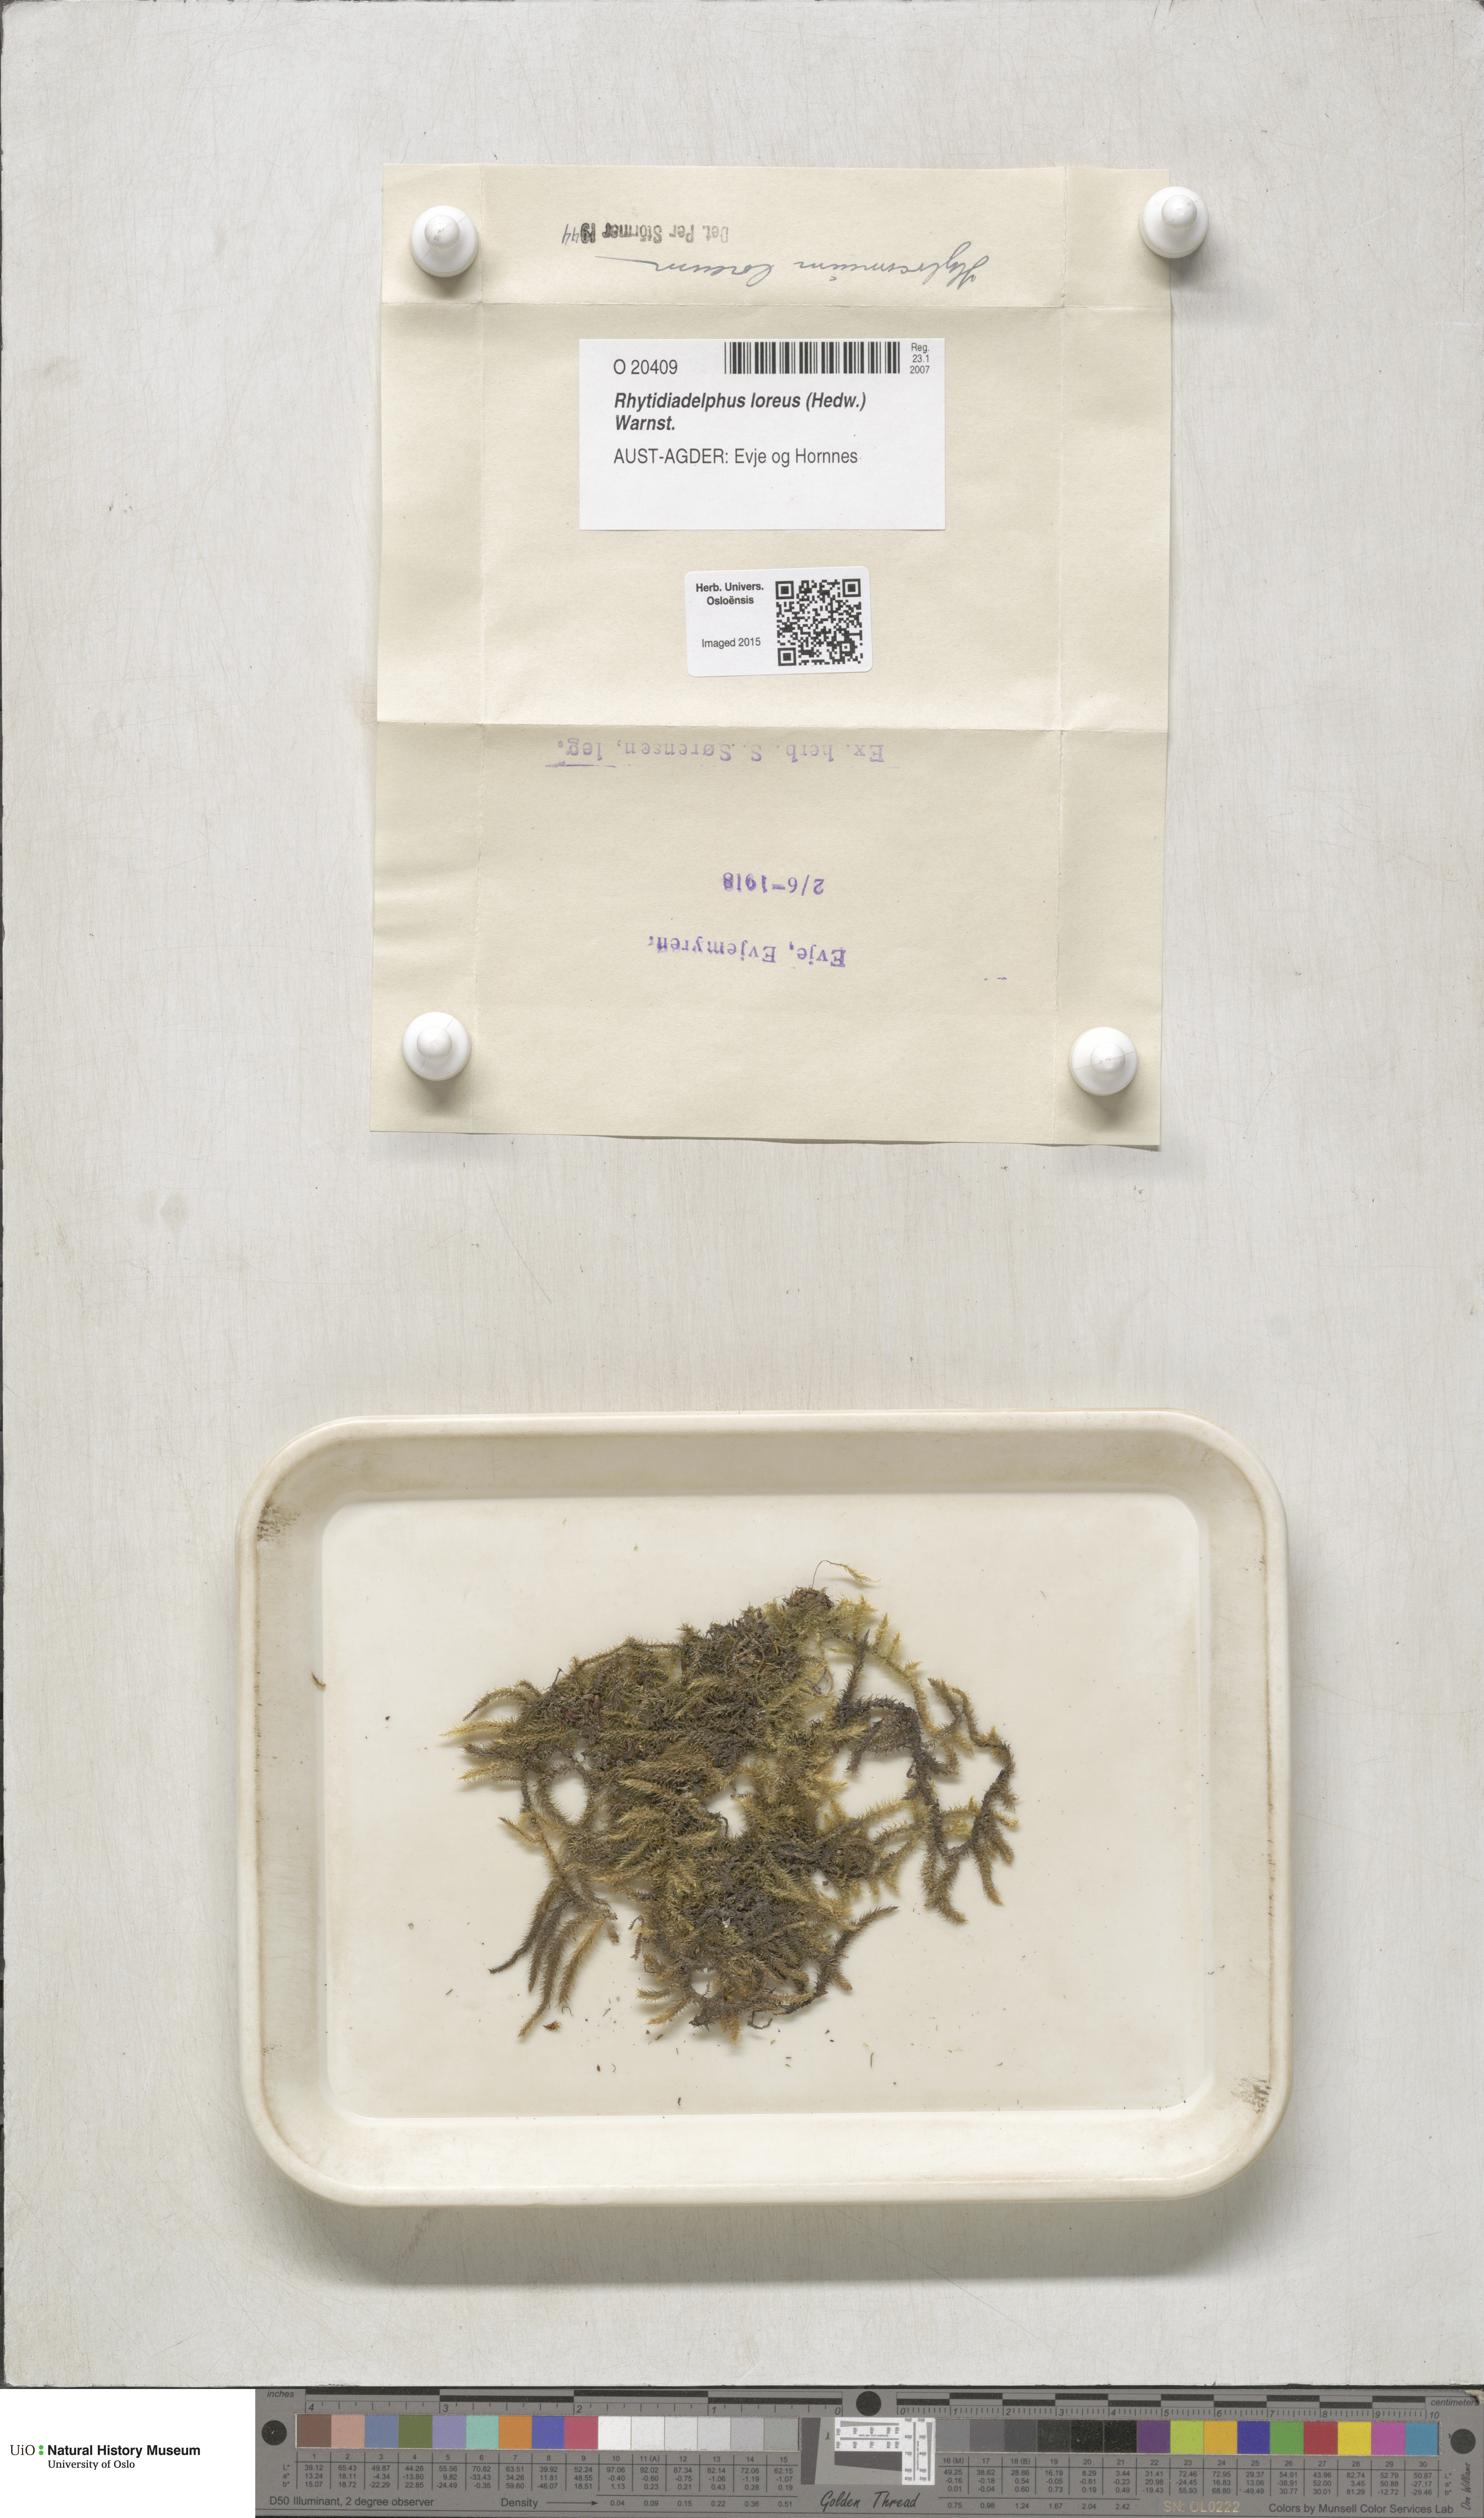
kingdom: Plantae
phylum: Bryophyta
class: Bryopsida
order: Hypnales
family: Hylocomiaceae
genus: Rhytidiadelphus
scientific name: Rhytidiadelphus loreus
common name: Lanky moss
